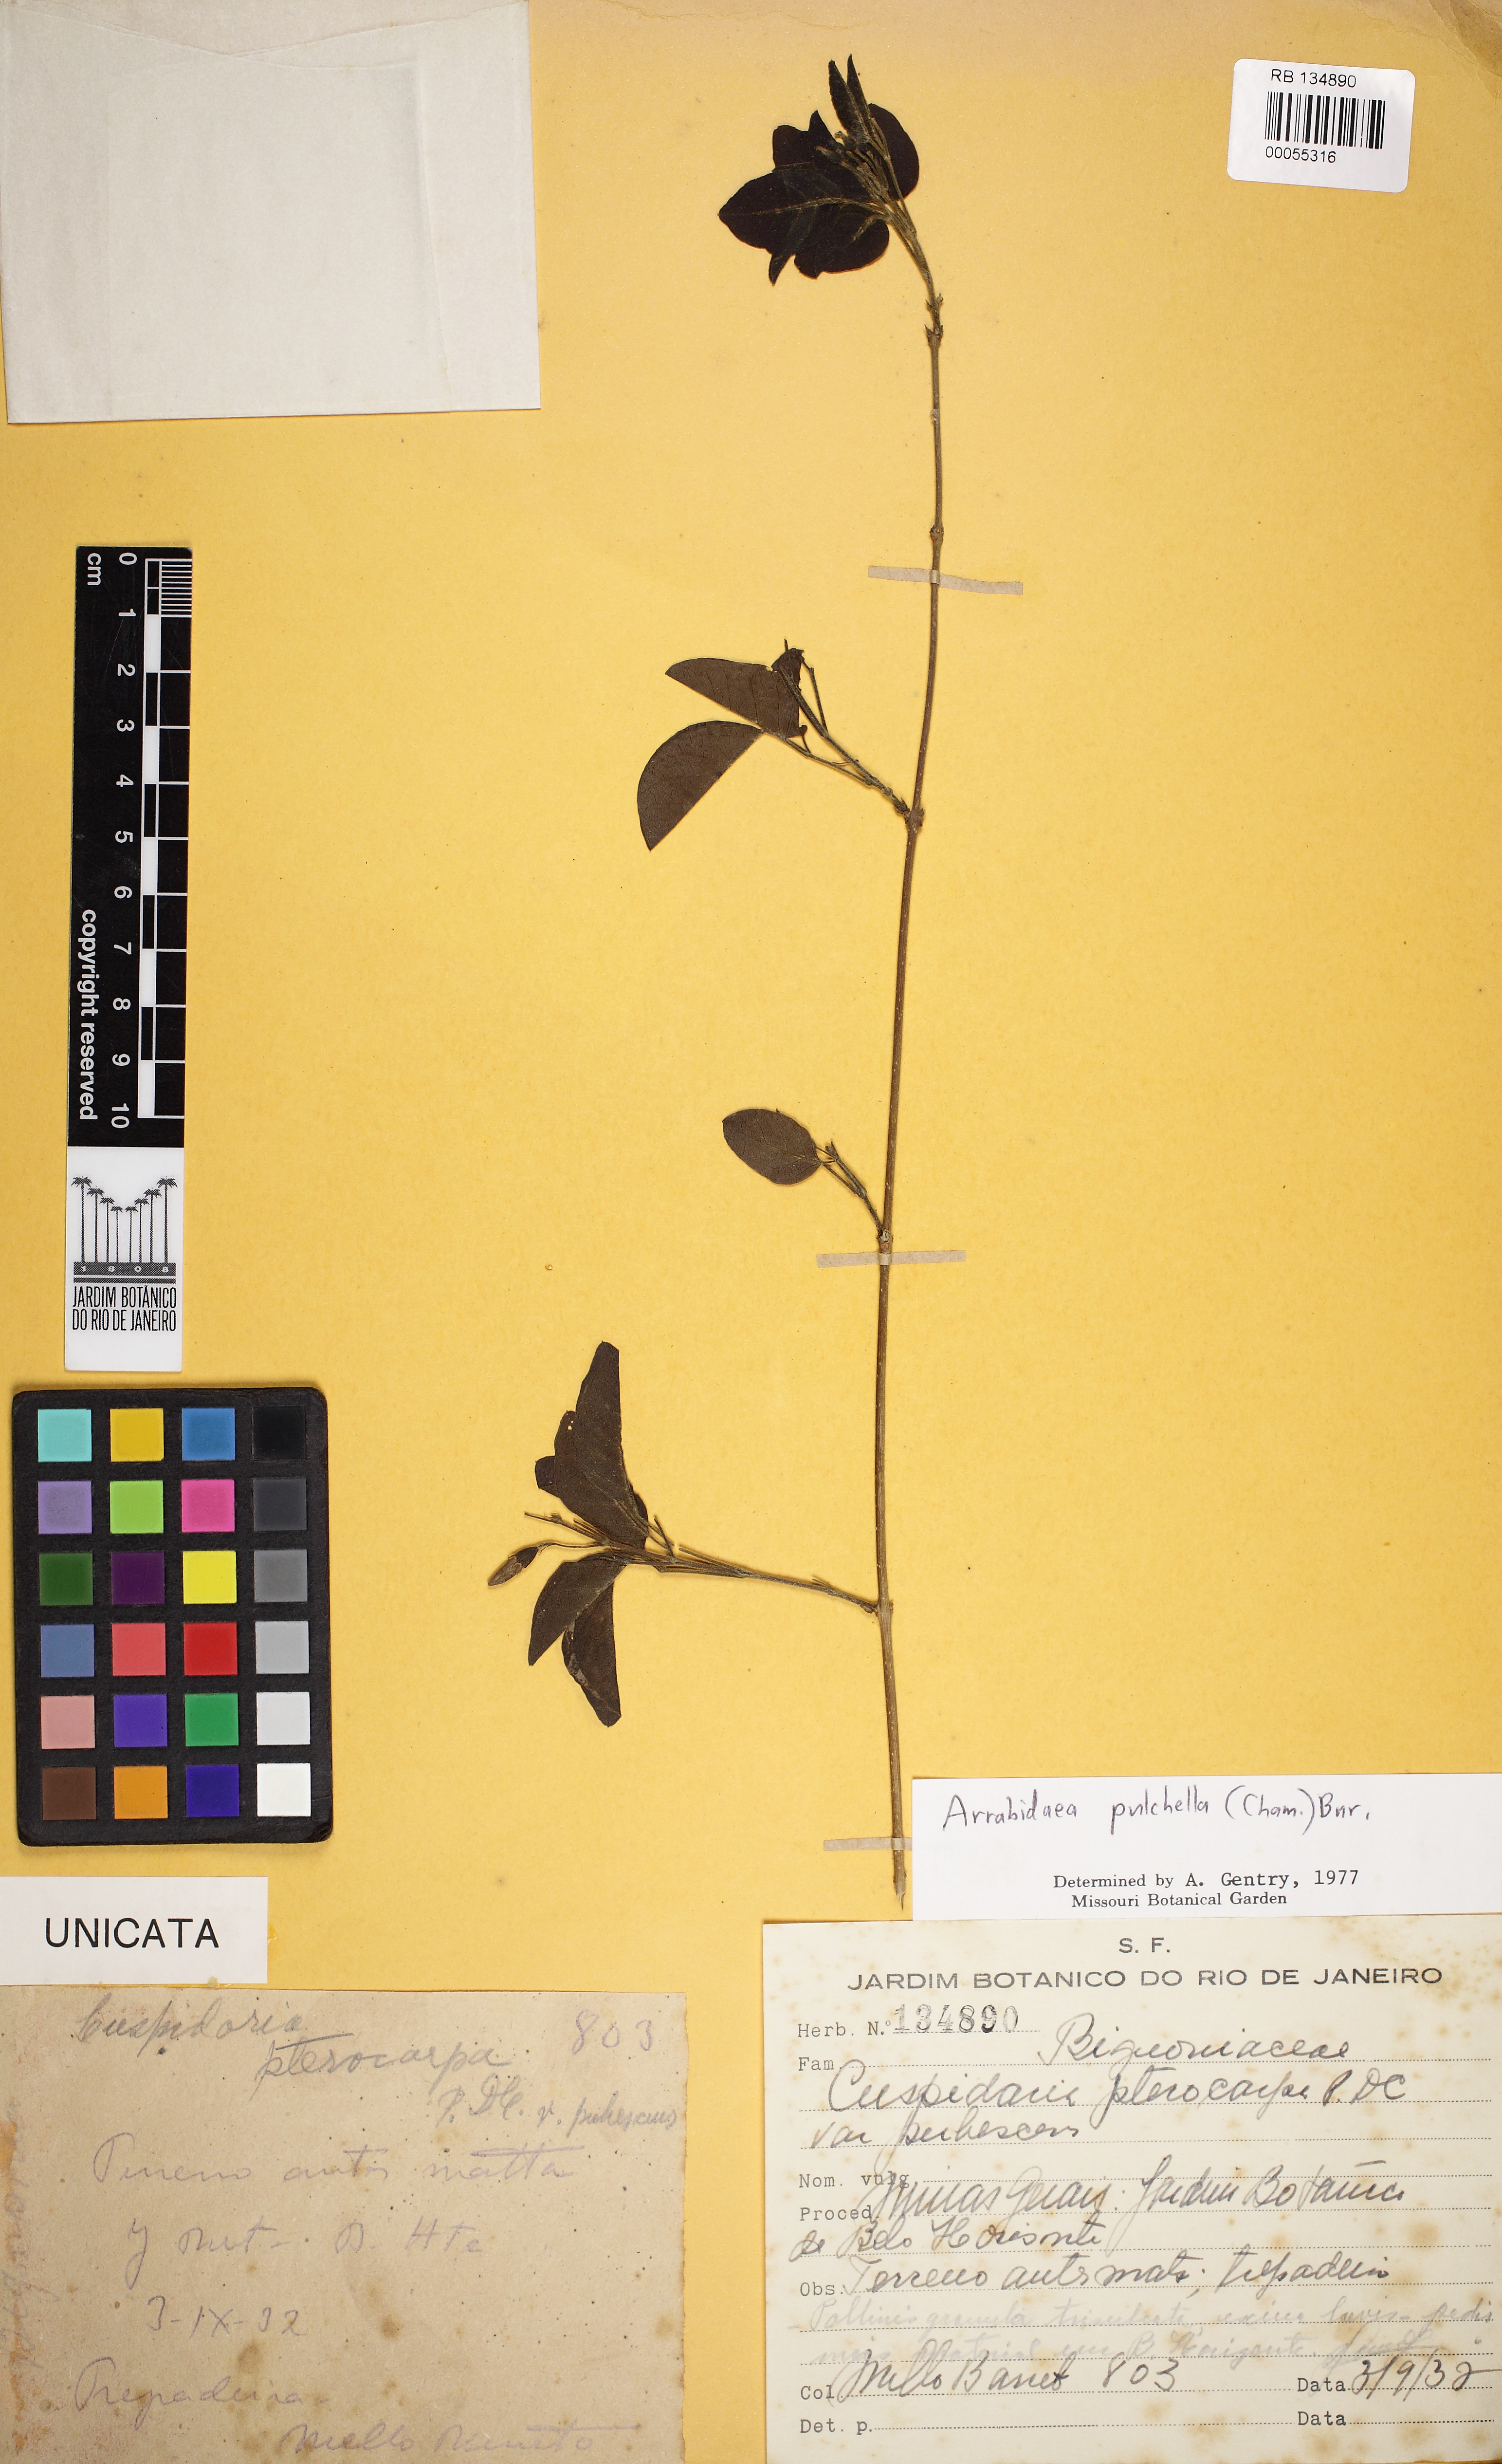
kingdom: Plantae
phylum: Tracheophyta
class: Magnoliopsida
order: Lamiales
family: Bignoniaceae
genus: Cuspidaria
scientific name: Cuspidaria pulchella
